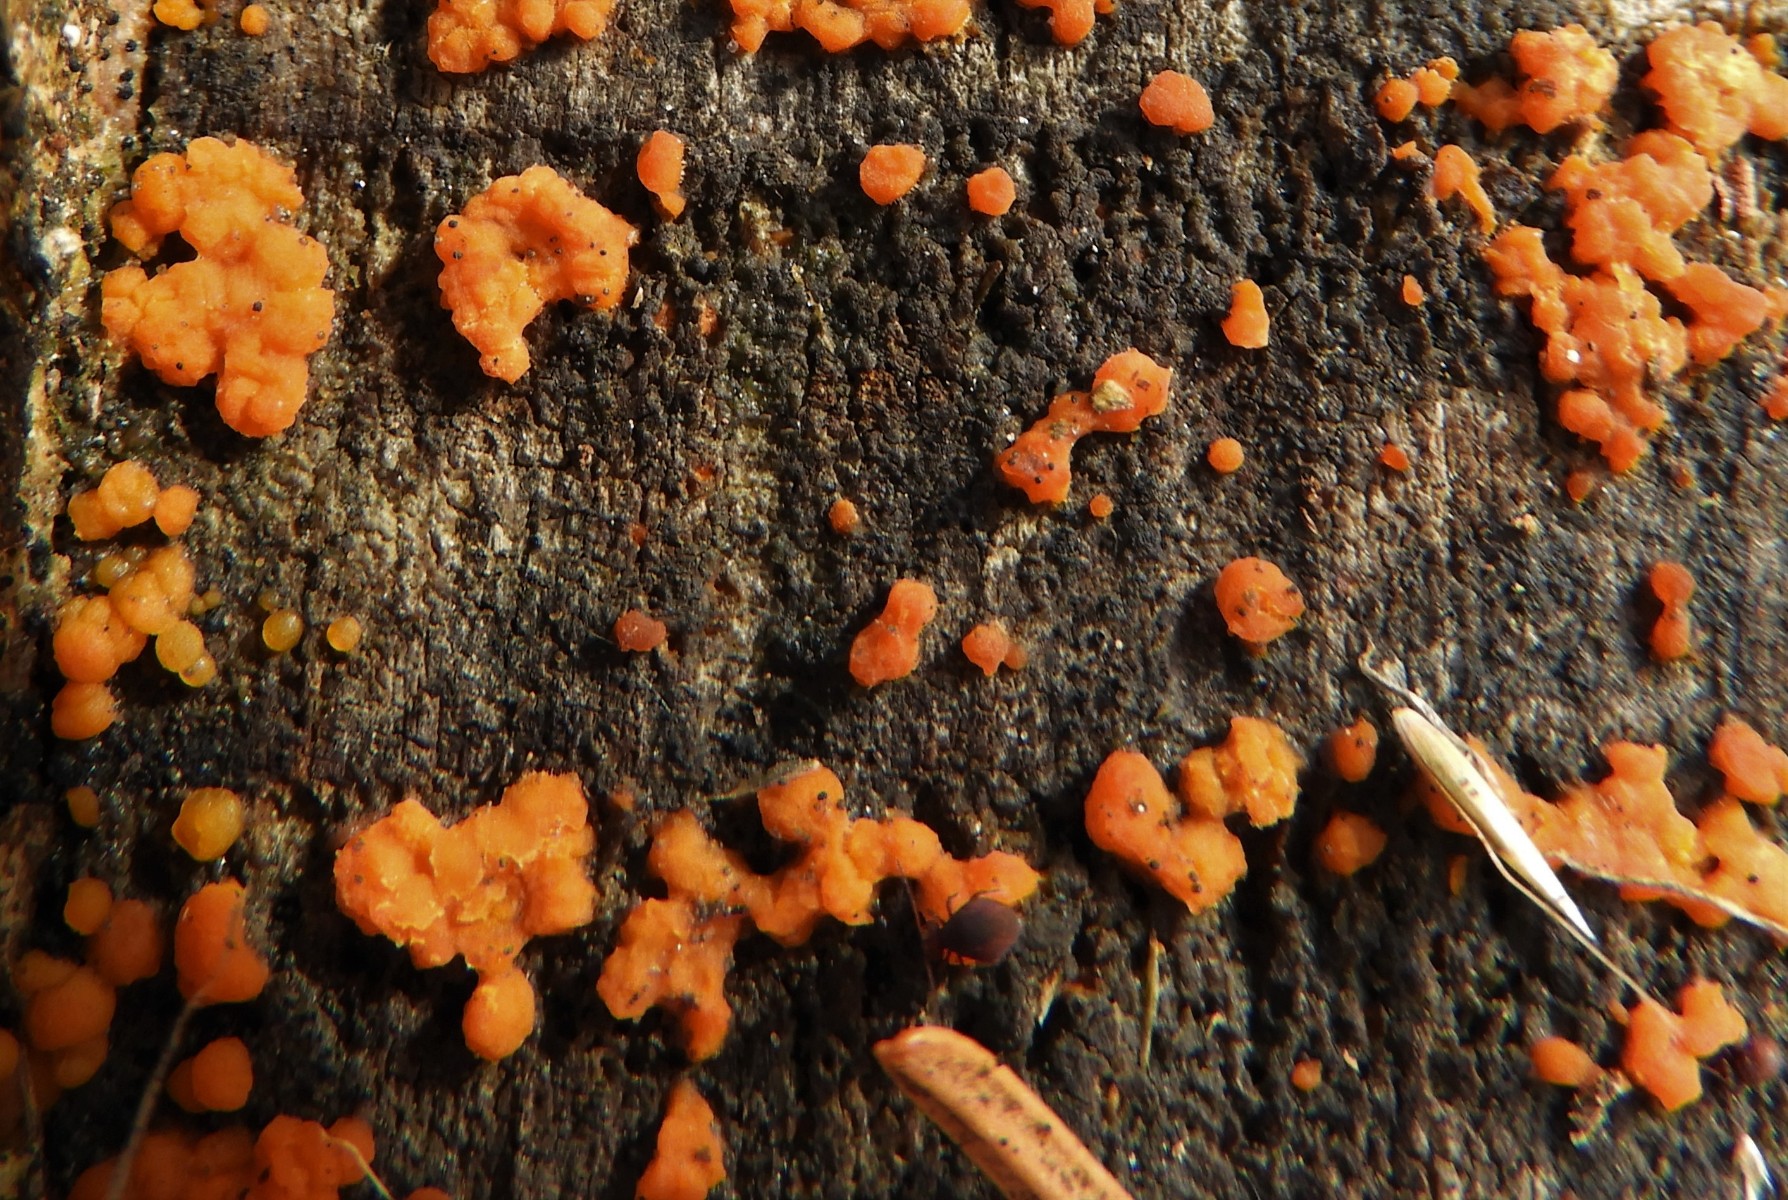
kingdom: Fungi
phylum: Basidiomycota
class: Dacrymycetes
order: Dacrymycetales
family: Dacrymycetaceae
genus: Dacrymyces
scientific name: Dacrymyces stillatus
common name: almindelig tåresvamp
